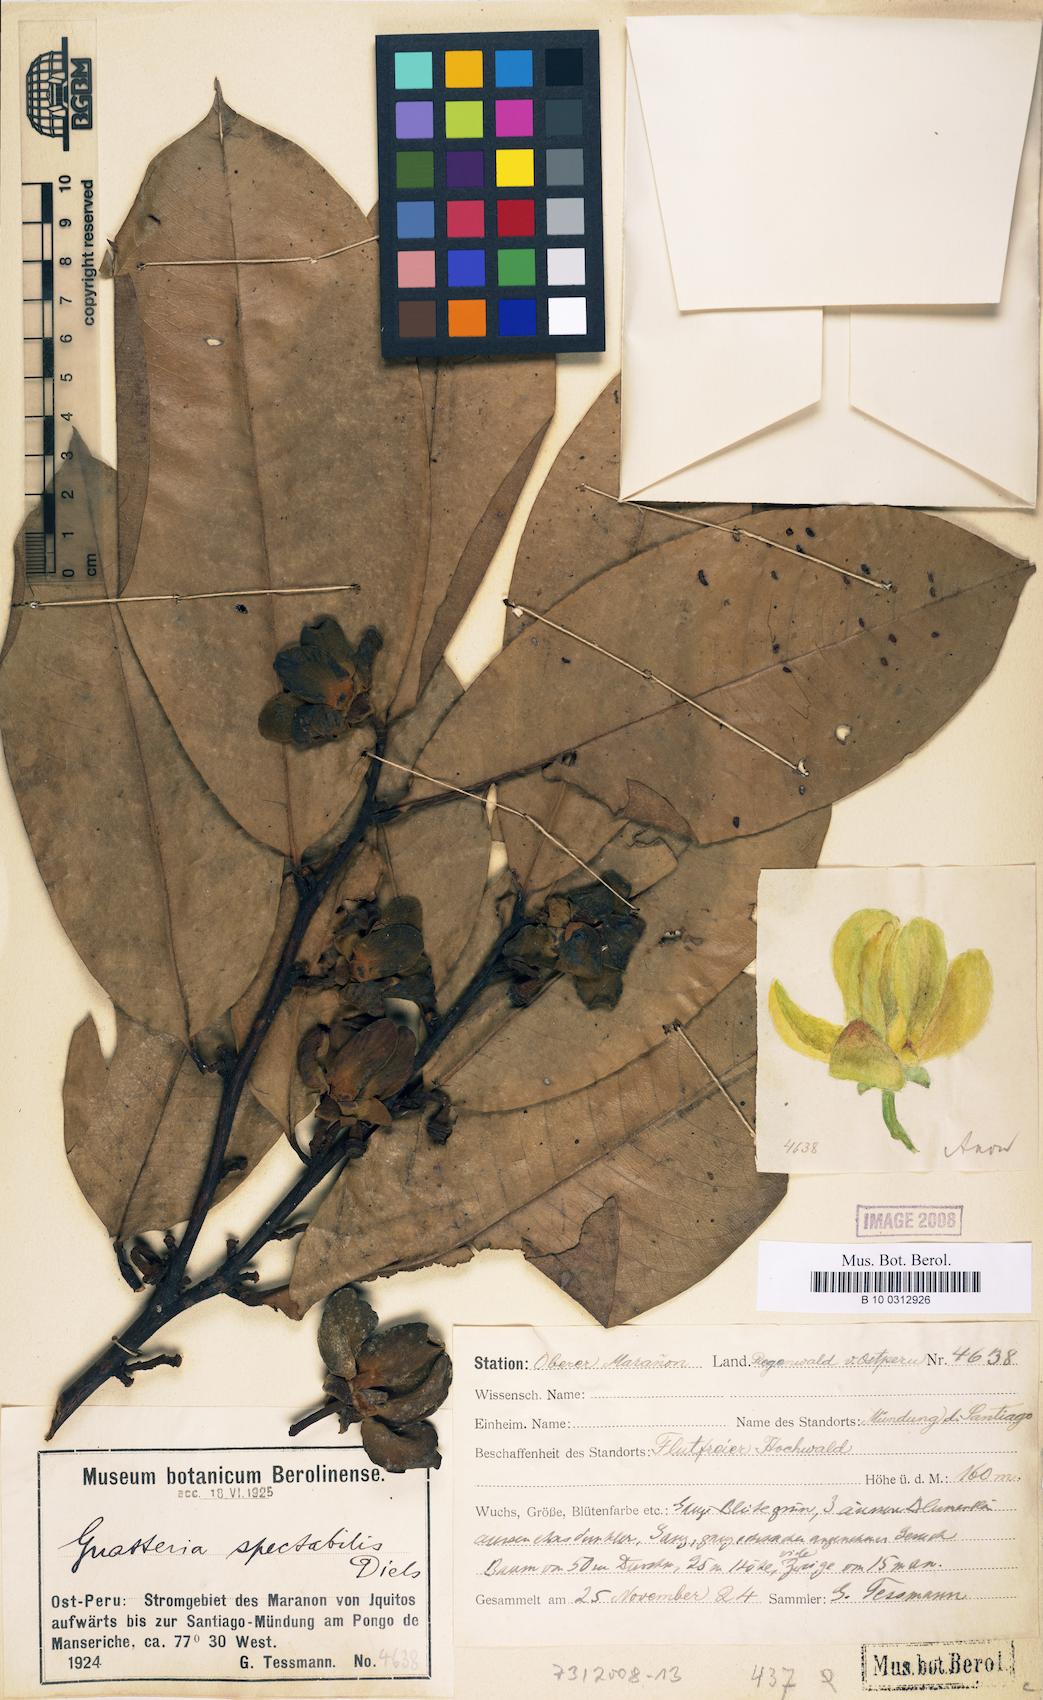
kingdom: Plantae
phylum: Tracheophyta
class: Magnoliopsida
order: Magnoliales
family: Annonaceae
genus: Guatteria
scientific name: Guatteria spectabilis
